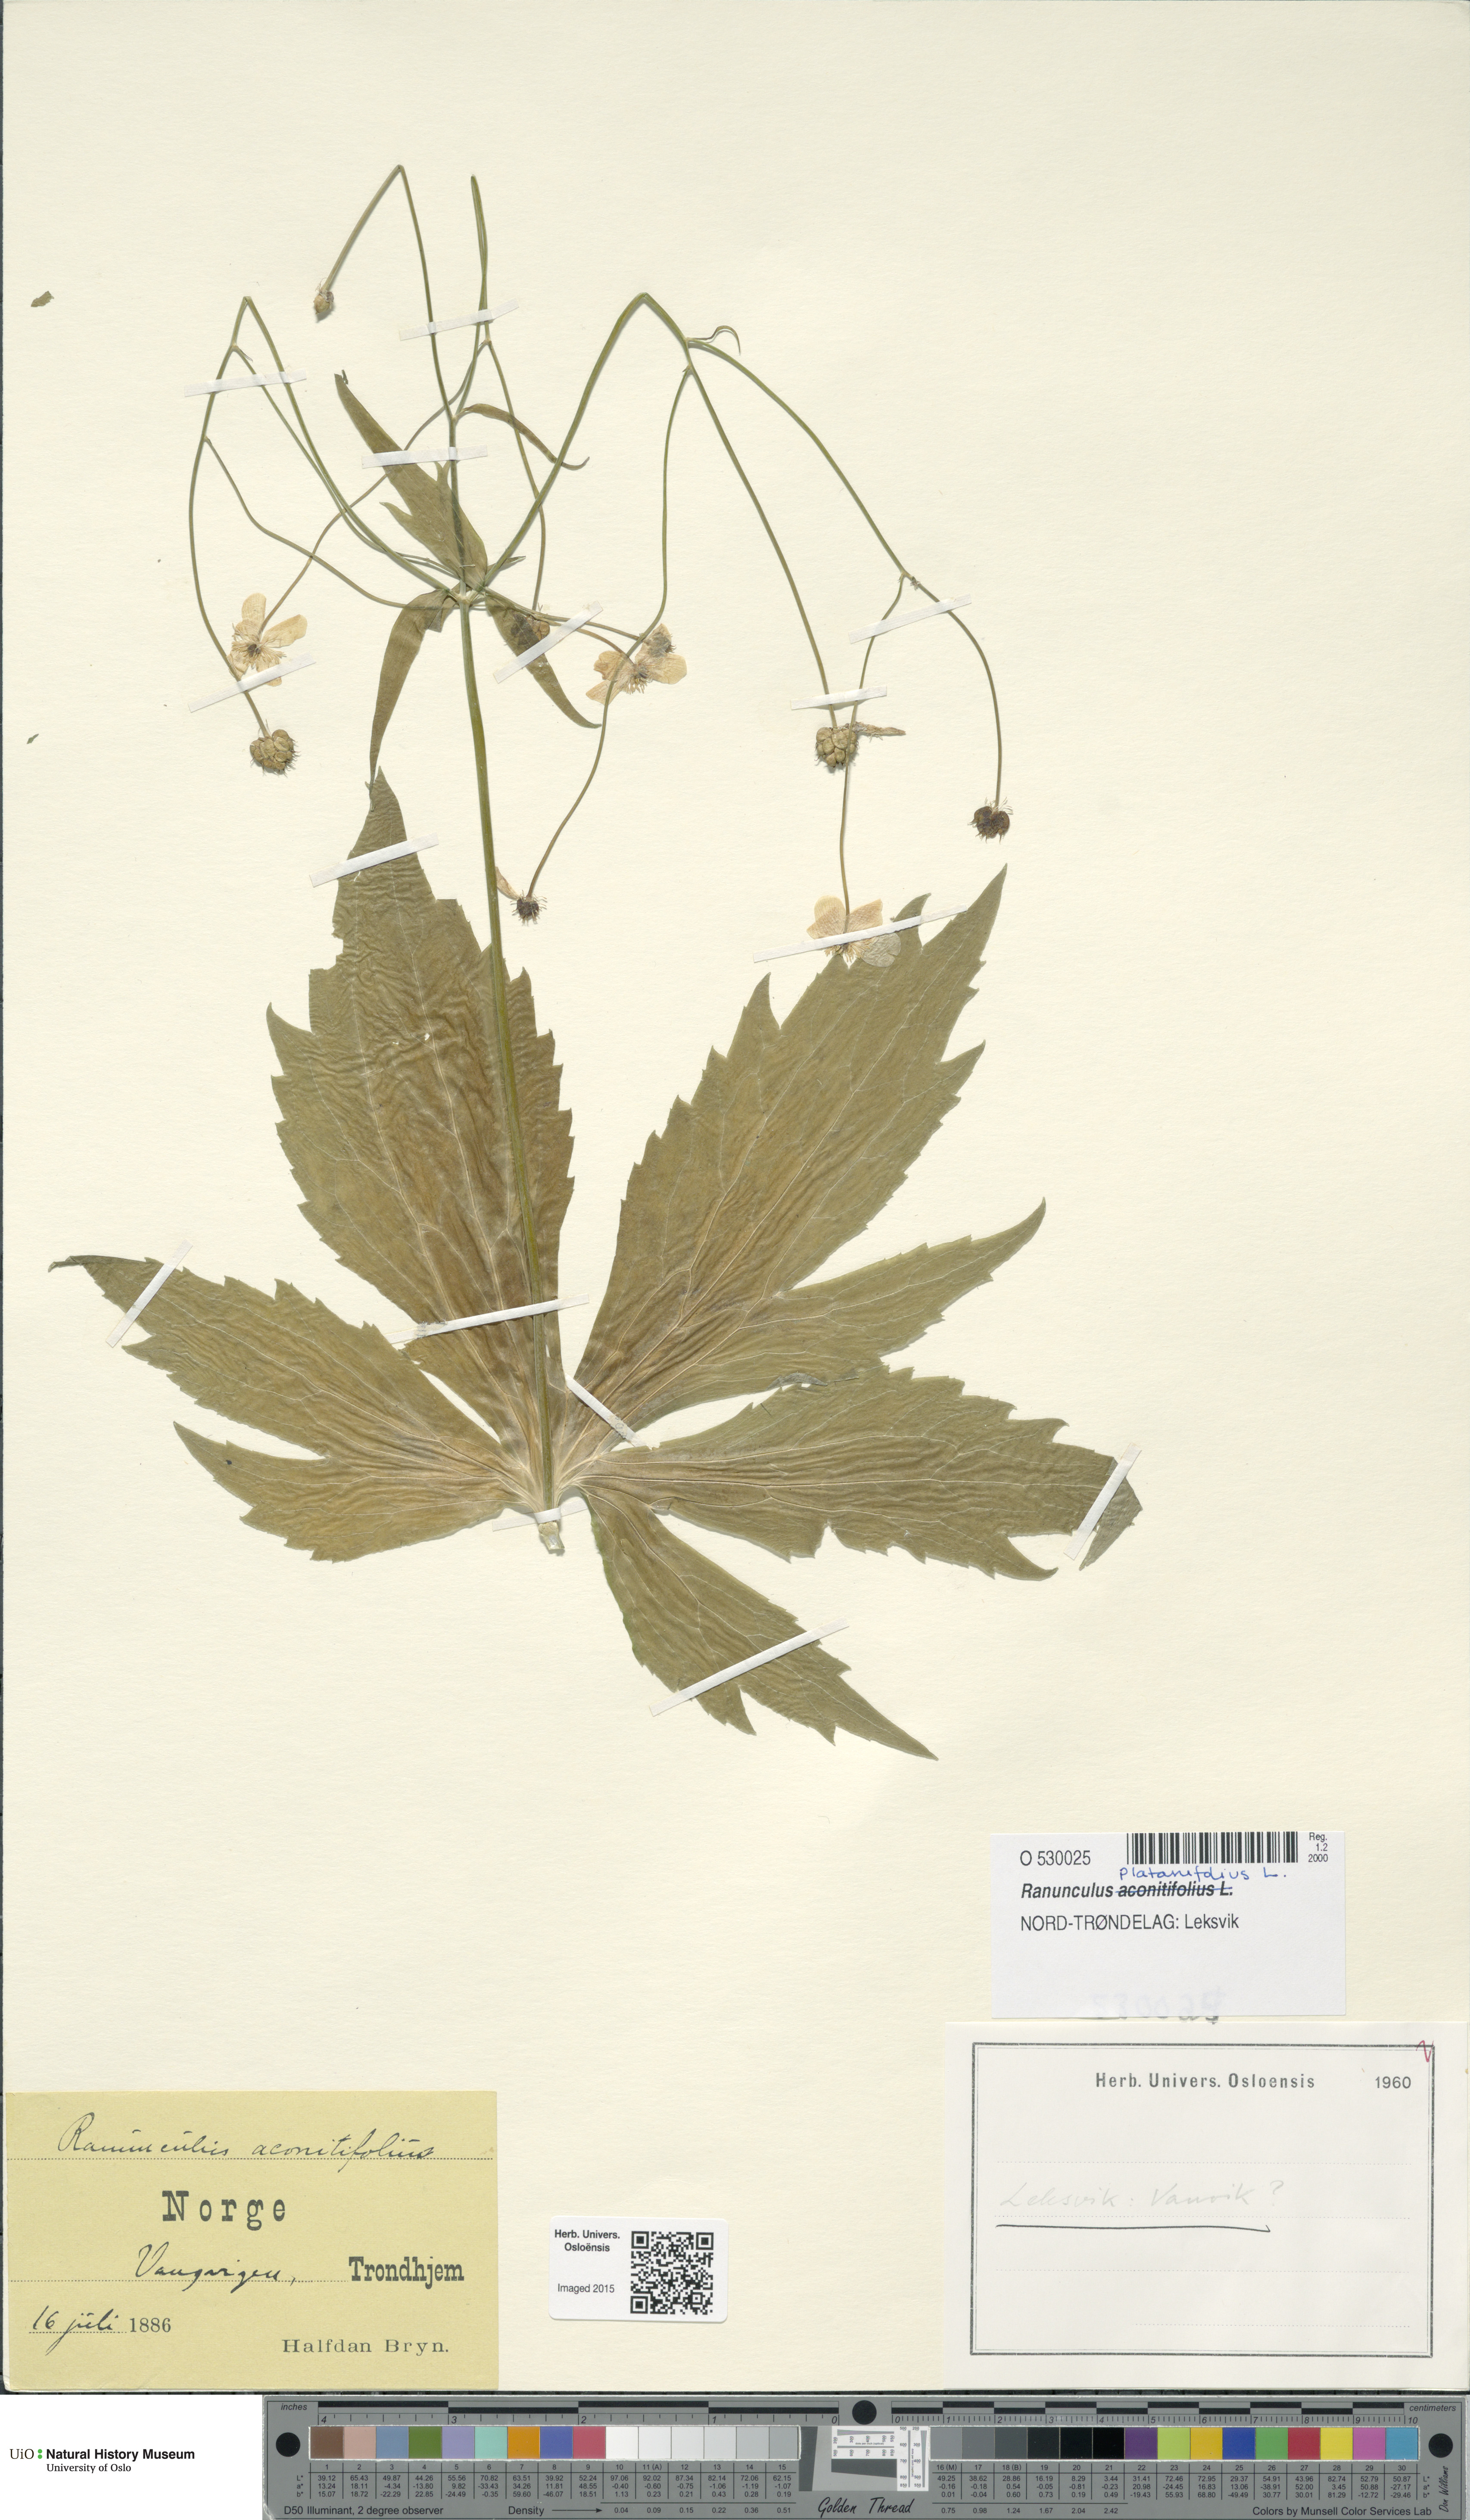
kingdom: Plantae
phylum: Tracheophyta
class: Magnoliopsida
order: Ranunculales
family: Ranunculaceae
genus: Ranunculus
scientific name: Ranunculus platanifolius
